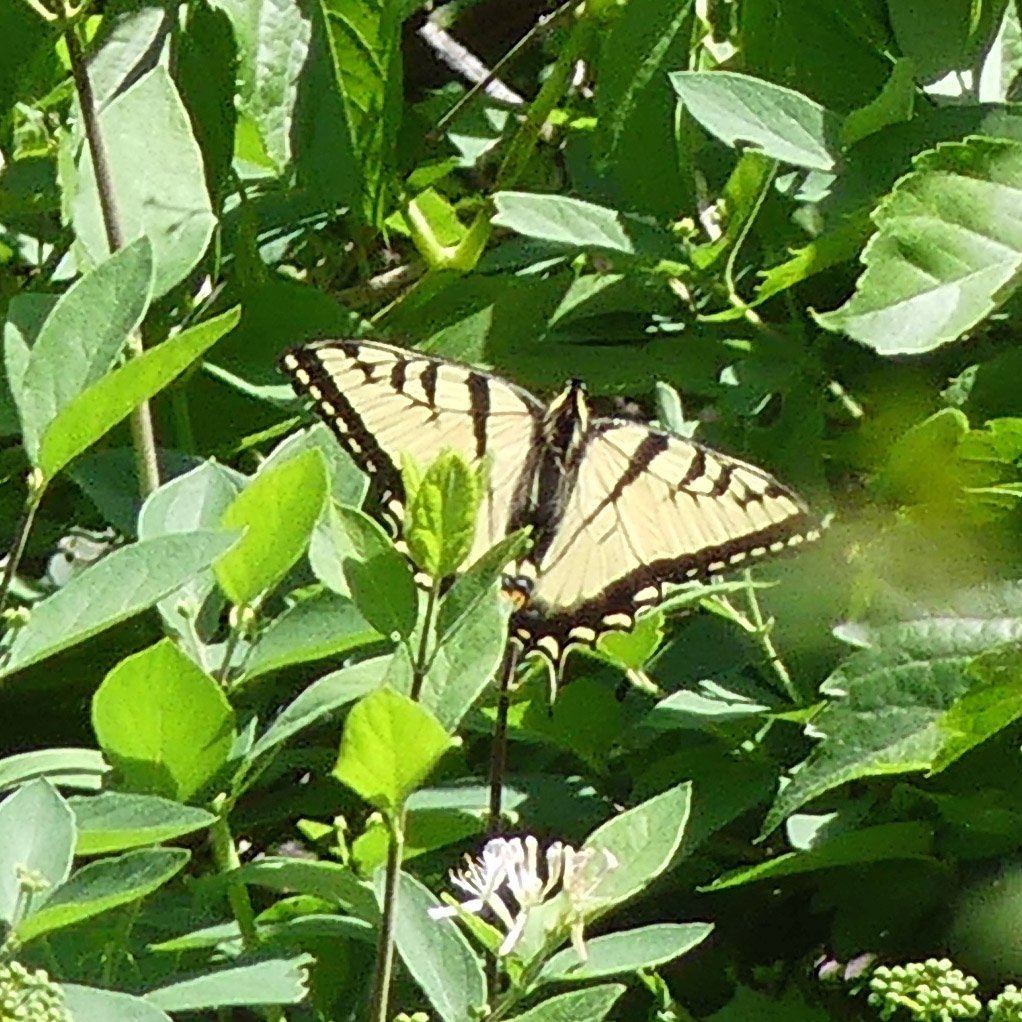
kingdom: Animalia
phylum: Arthropoda
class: Insecta
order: Lepidoptera
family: Papilionidae
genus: Pterourus
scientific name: Pterourus glaucus
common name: Eastern Tiger Swallowtail
